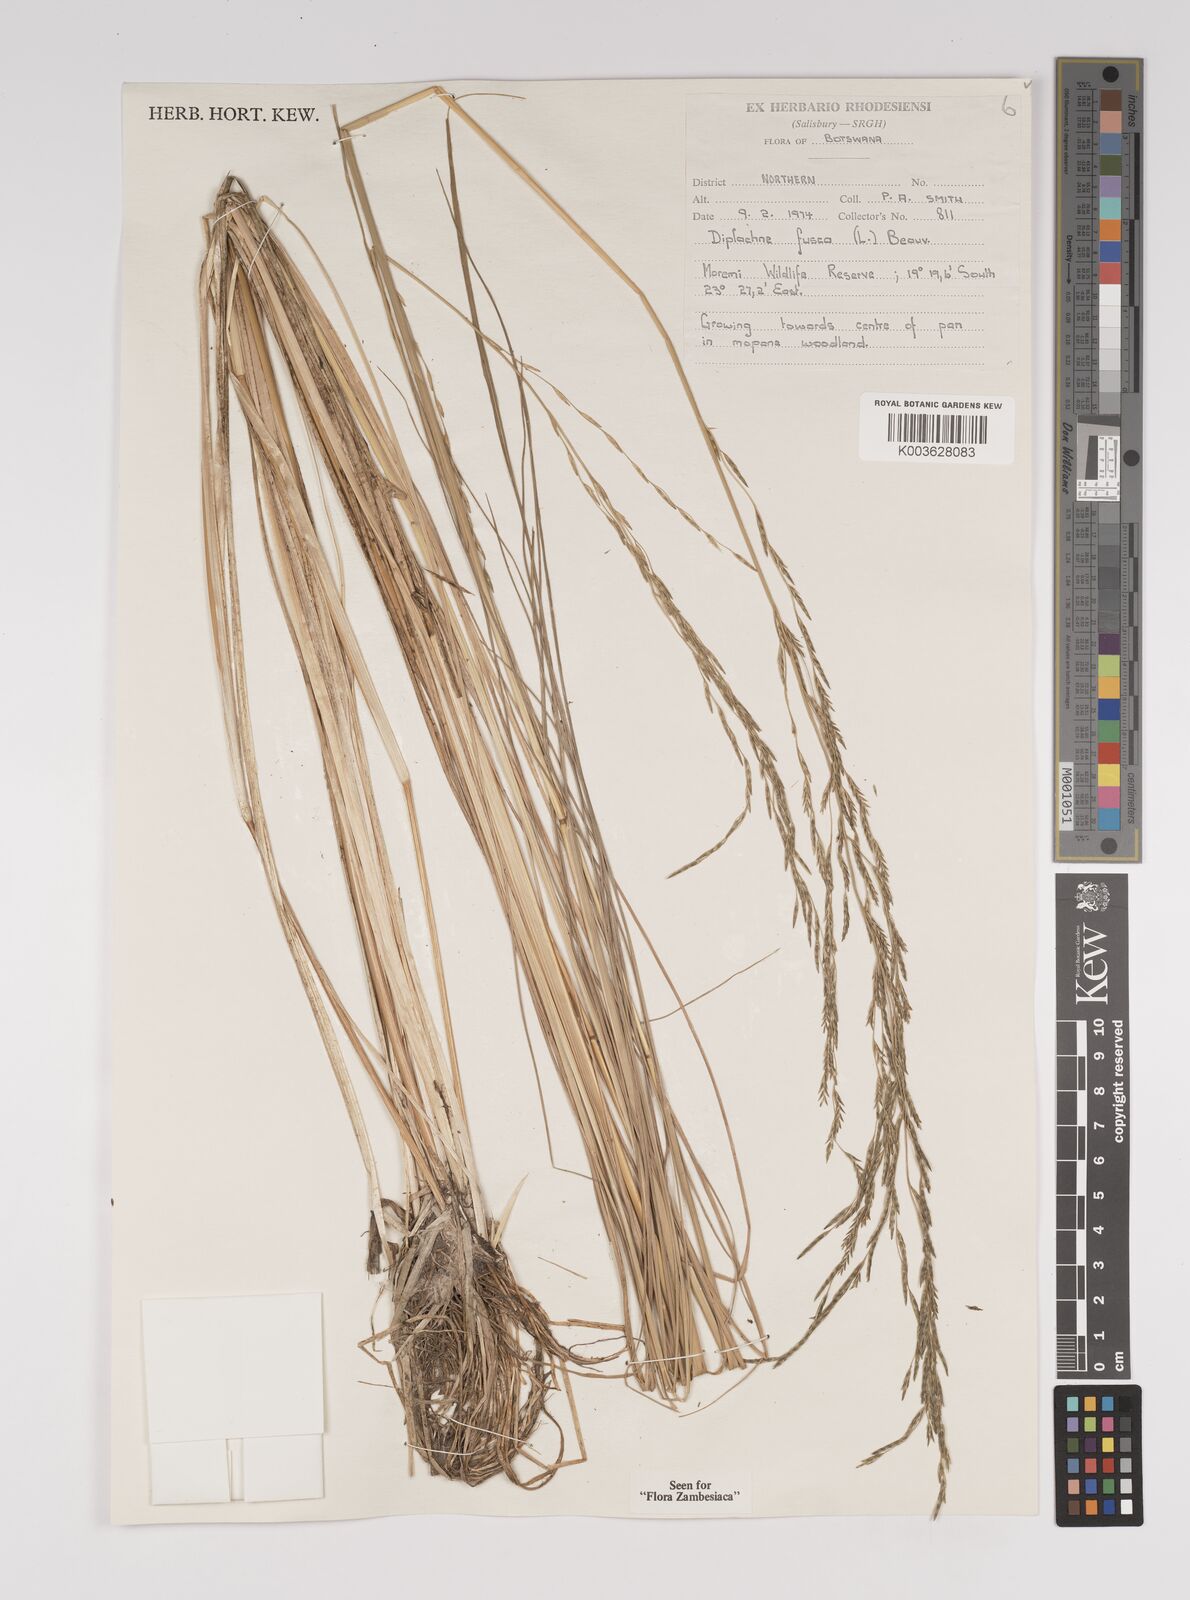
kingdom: Plantae
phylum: Tracheophyta
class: Liliopsida
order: Poales
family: Poaceae
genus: Diplachne
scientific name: Diplachne fusca
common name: Brown beetle grass
